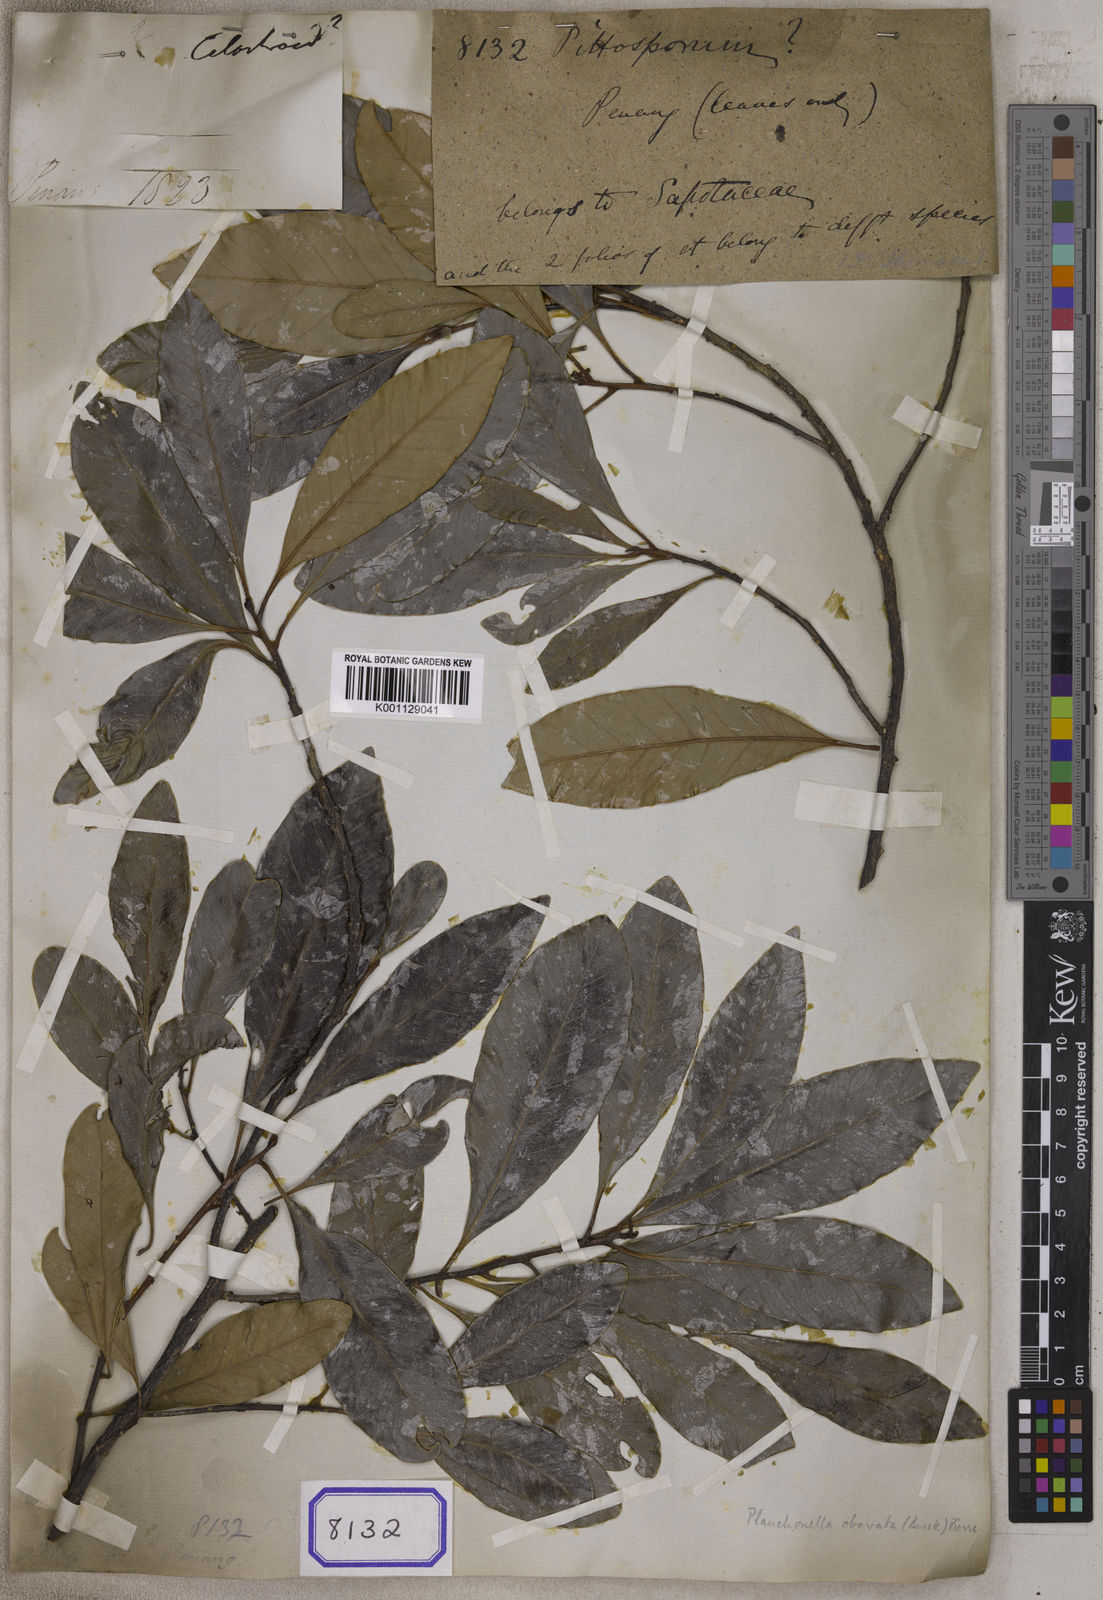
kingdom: Plantae
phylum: Tracheophyta
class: Magnoliopsida
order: Apiales
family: Pittosporaceae
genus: Pittosporum
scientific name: Pittosporum
